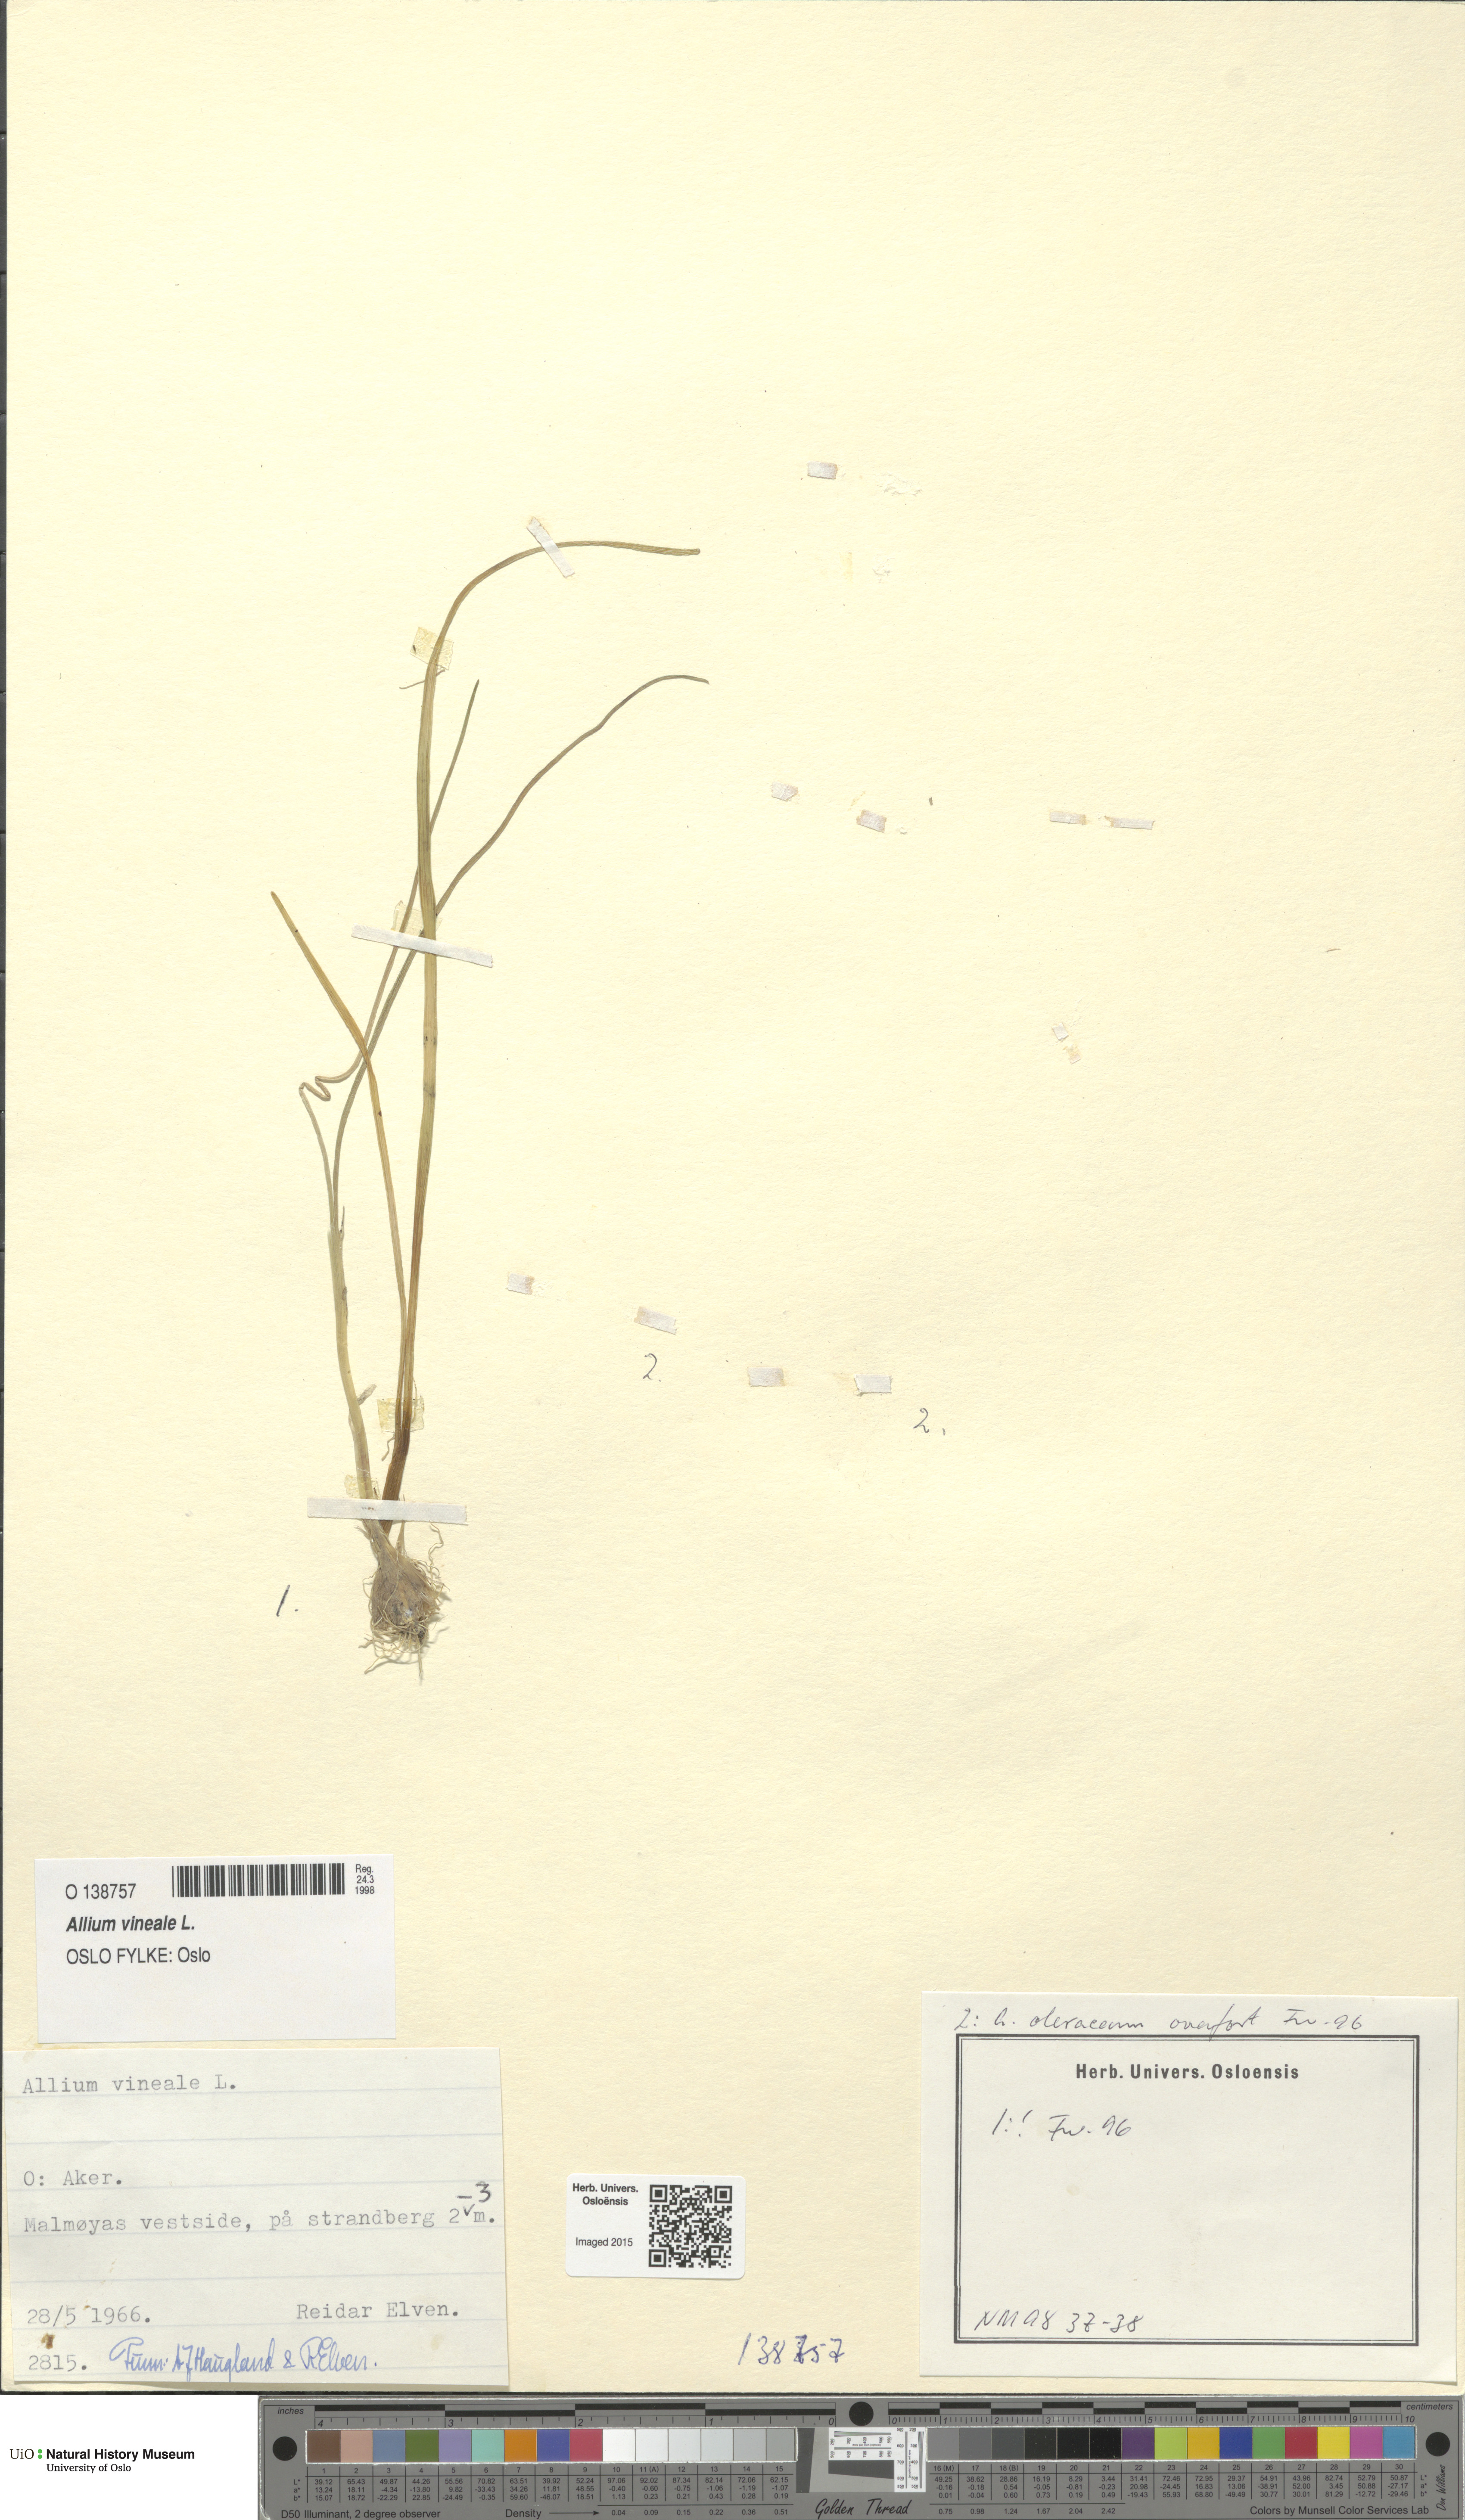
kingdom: Plantae
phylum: Tracheophyta
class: Liliopsida
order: Asparagales
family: Amaryllidaceae
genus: Allium
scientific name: Allium vineale
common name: Crow garlic
